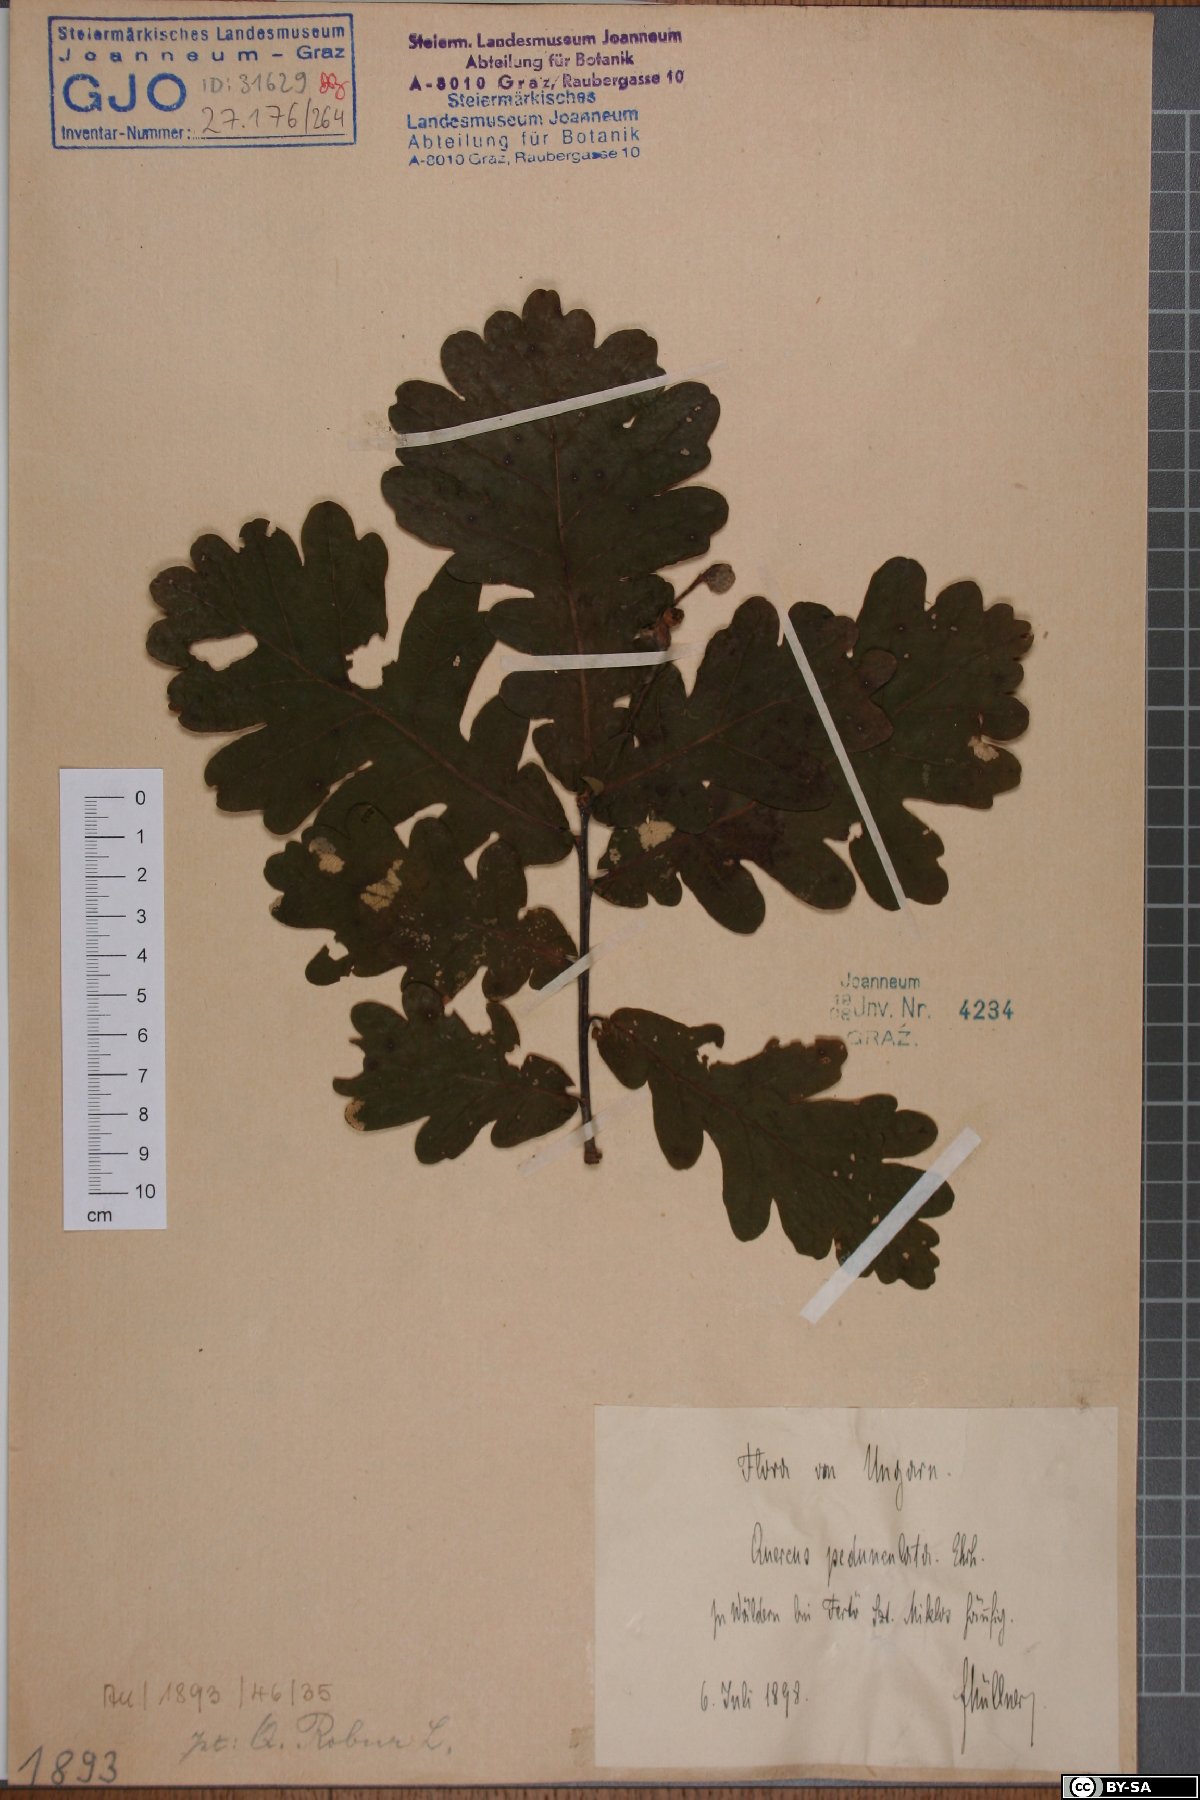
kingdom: Plantae
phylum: Tracheophyta
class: Magnoliopsida
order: Fagales
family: Fagaceae
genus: Quercus
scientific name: Quercus robur
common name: Pedunculate oak
